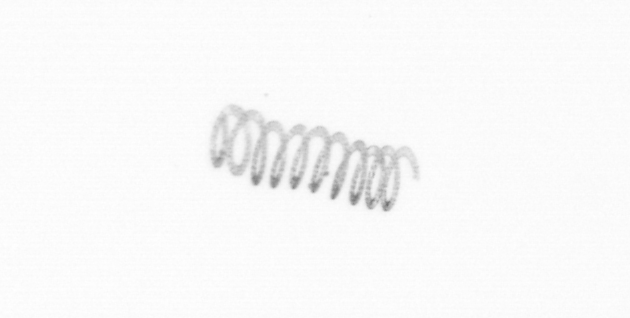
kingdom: Chromista
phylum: Ochrophyta
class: Bacillariophyceae
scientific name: Bacillariophyceae
